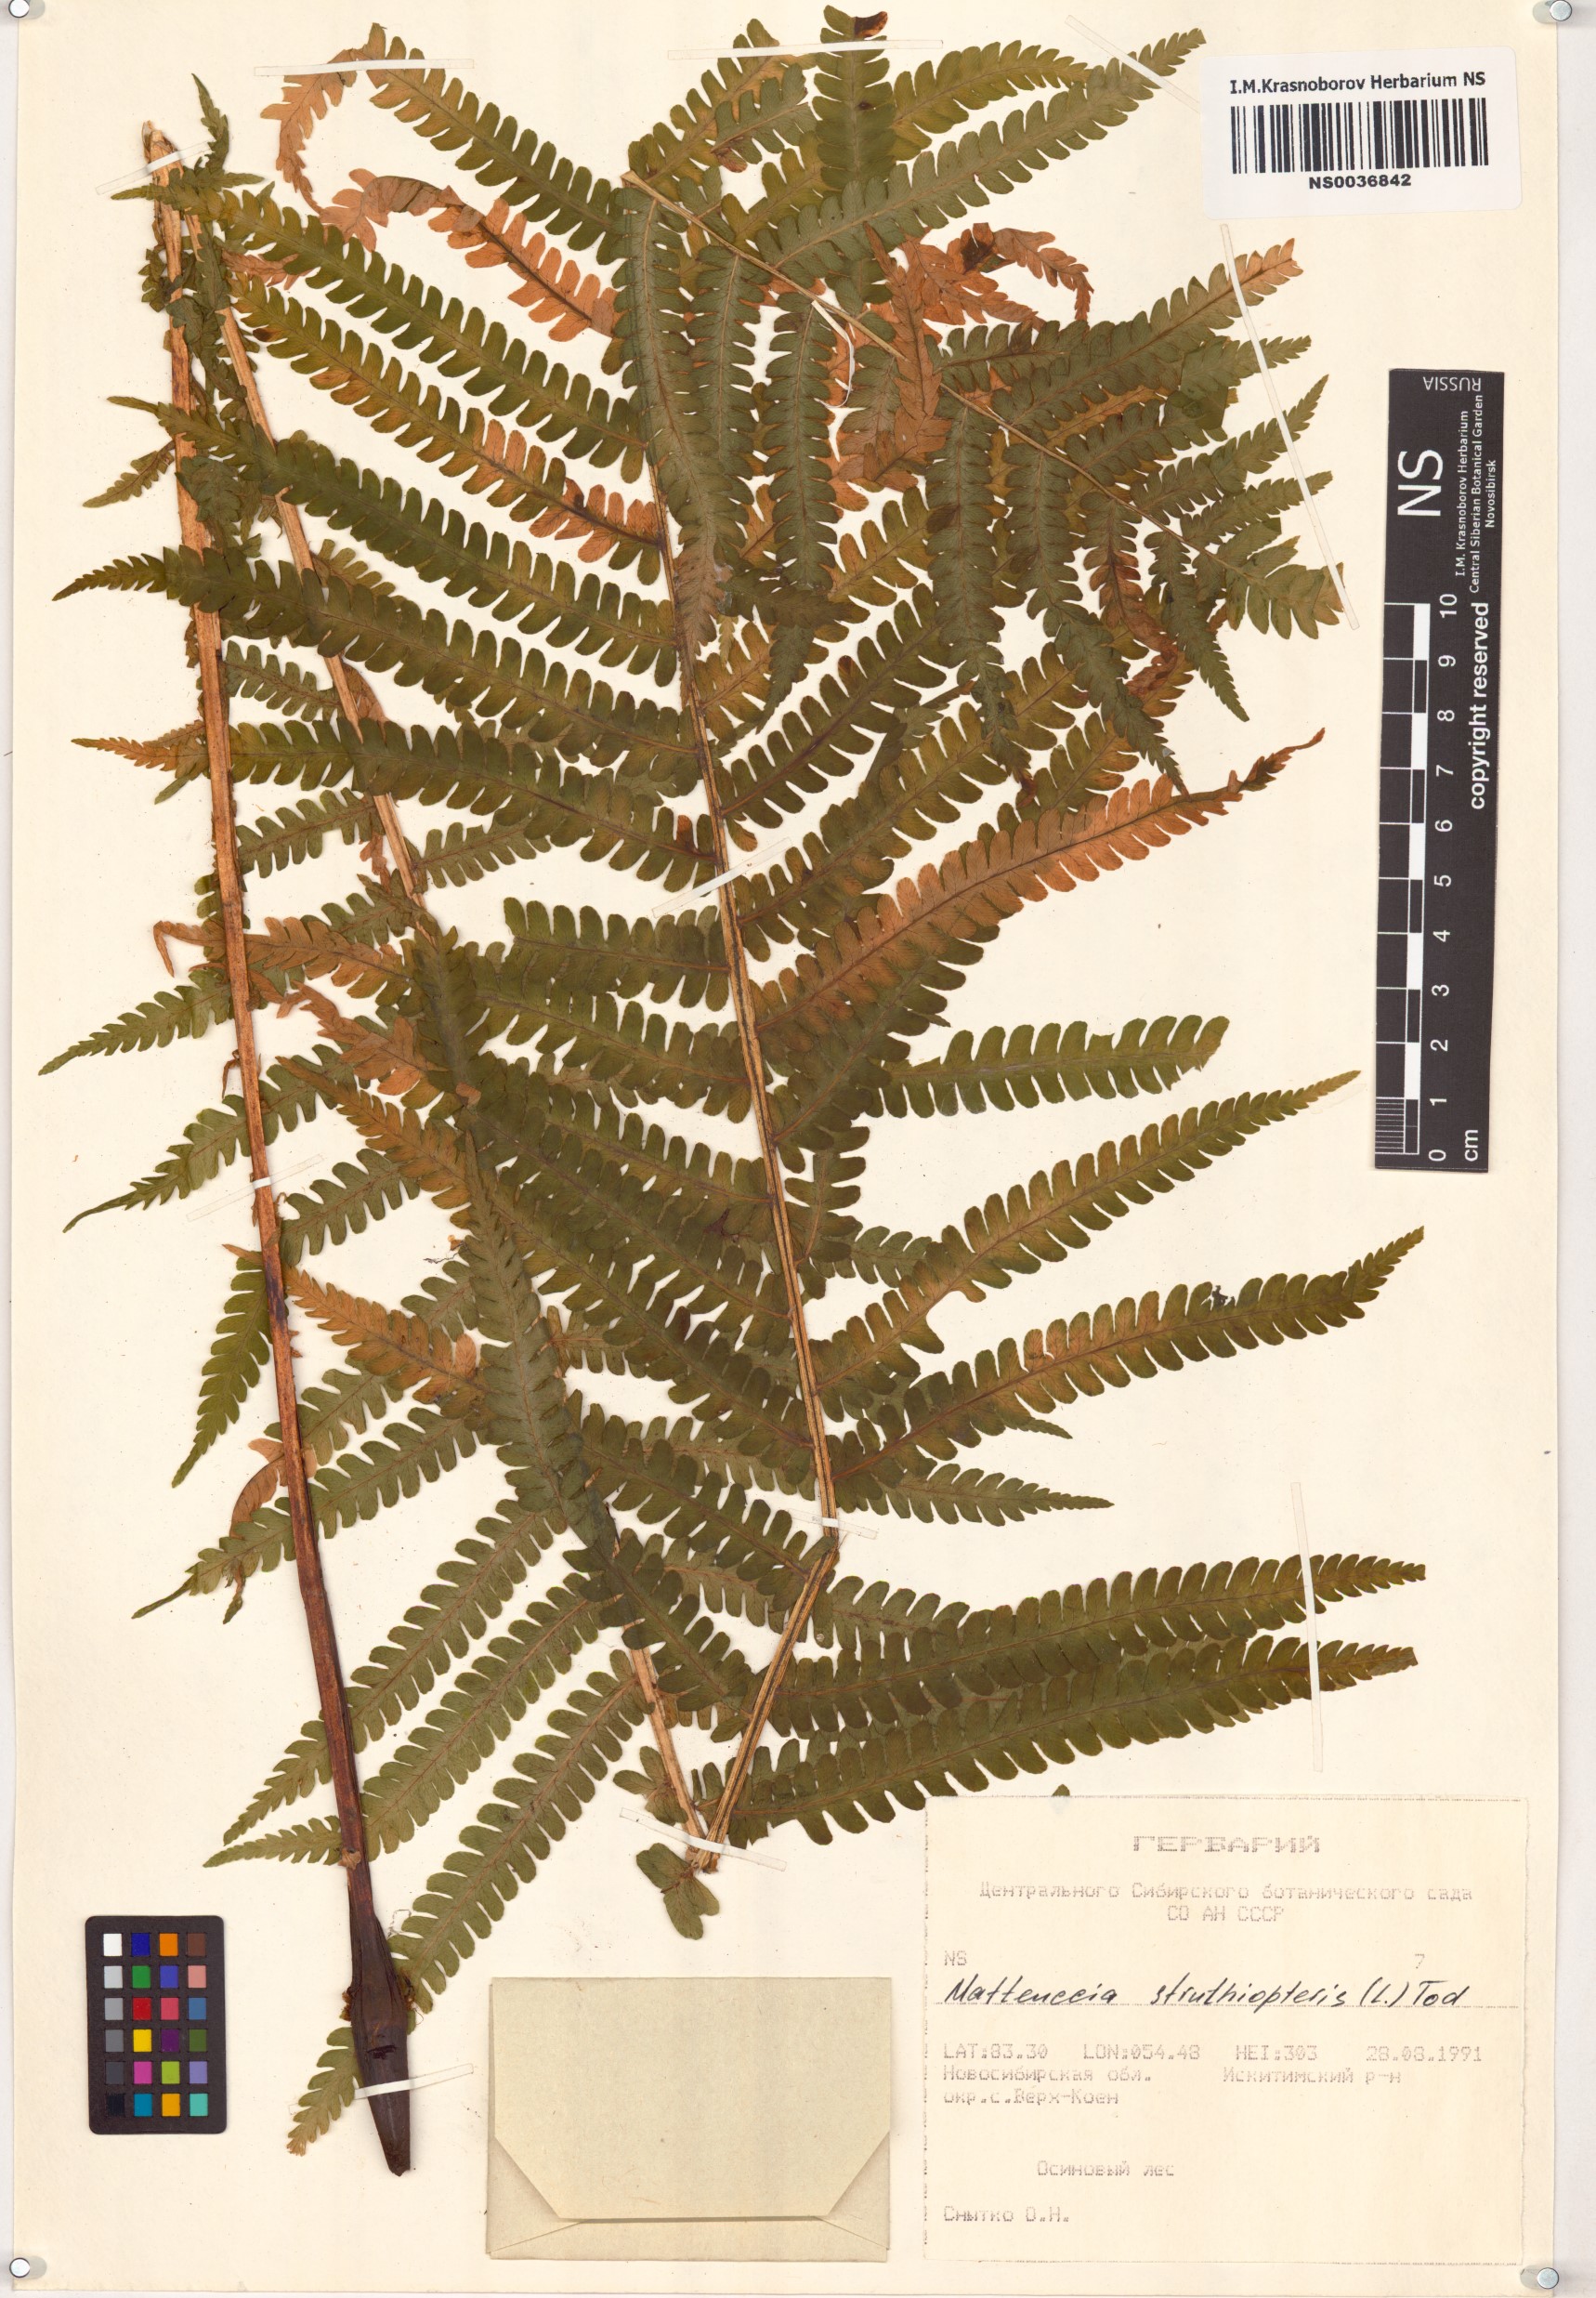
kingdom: Plantae
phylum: Tracheophyta
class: Polypodiopsida
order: Polypodiales
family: Onocleaceae
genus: Matteuccia
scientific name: Matteuccia struthiopteris
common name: Ostrich fern
